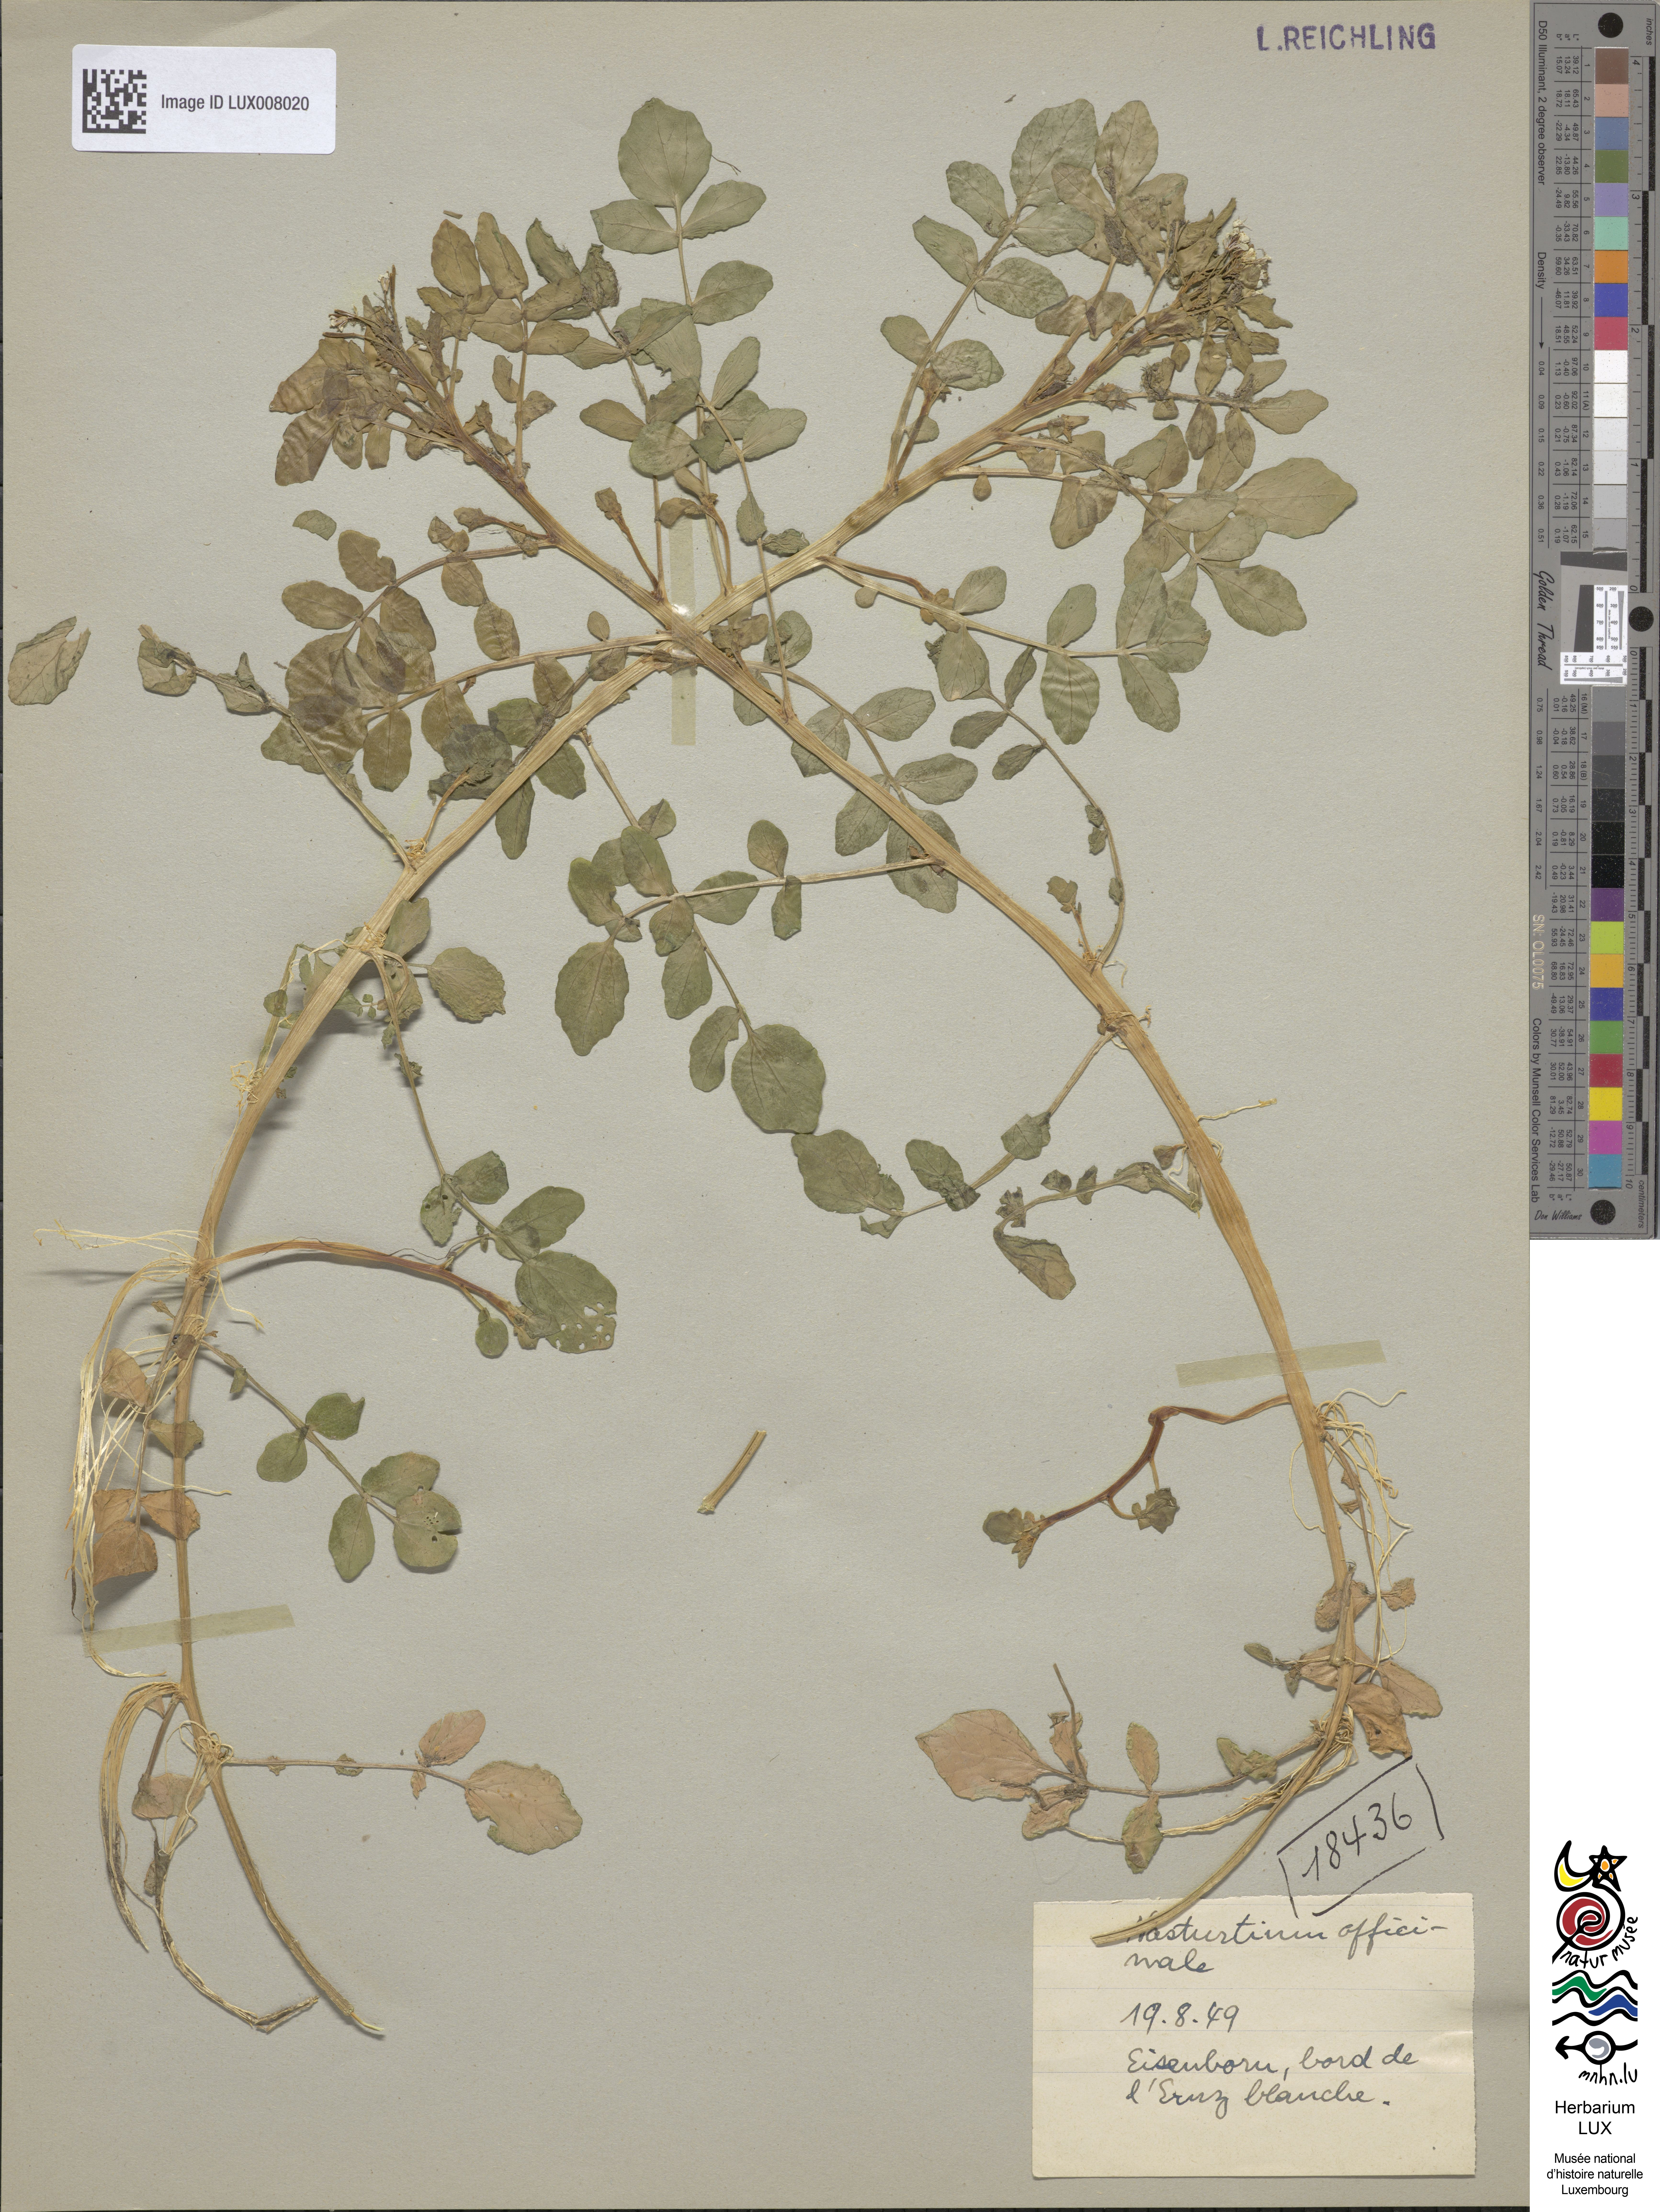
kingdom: Plantae
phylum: Tracheophyta
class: Magnoliopsida
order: Brassicales
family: Brassicaceae
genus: Nasturtium
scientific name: Nasturtium officinale
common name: Watercress
